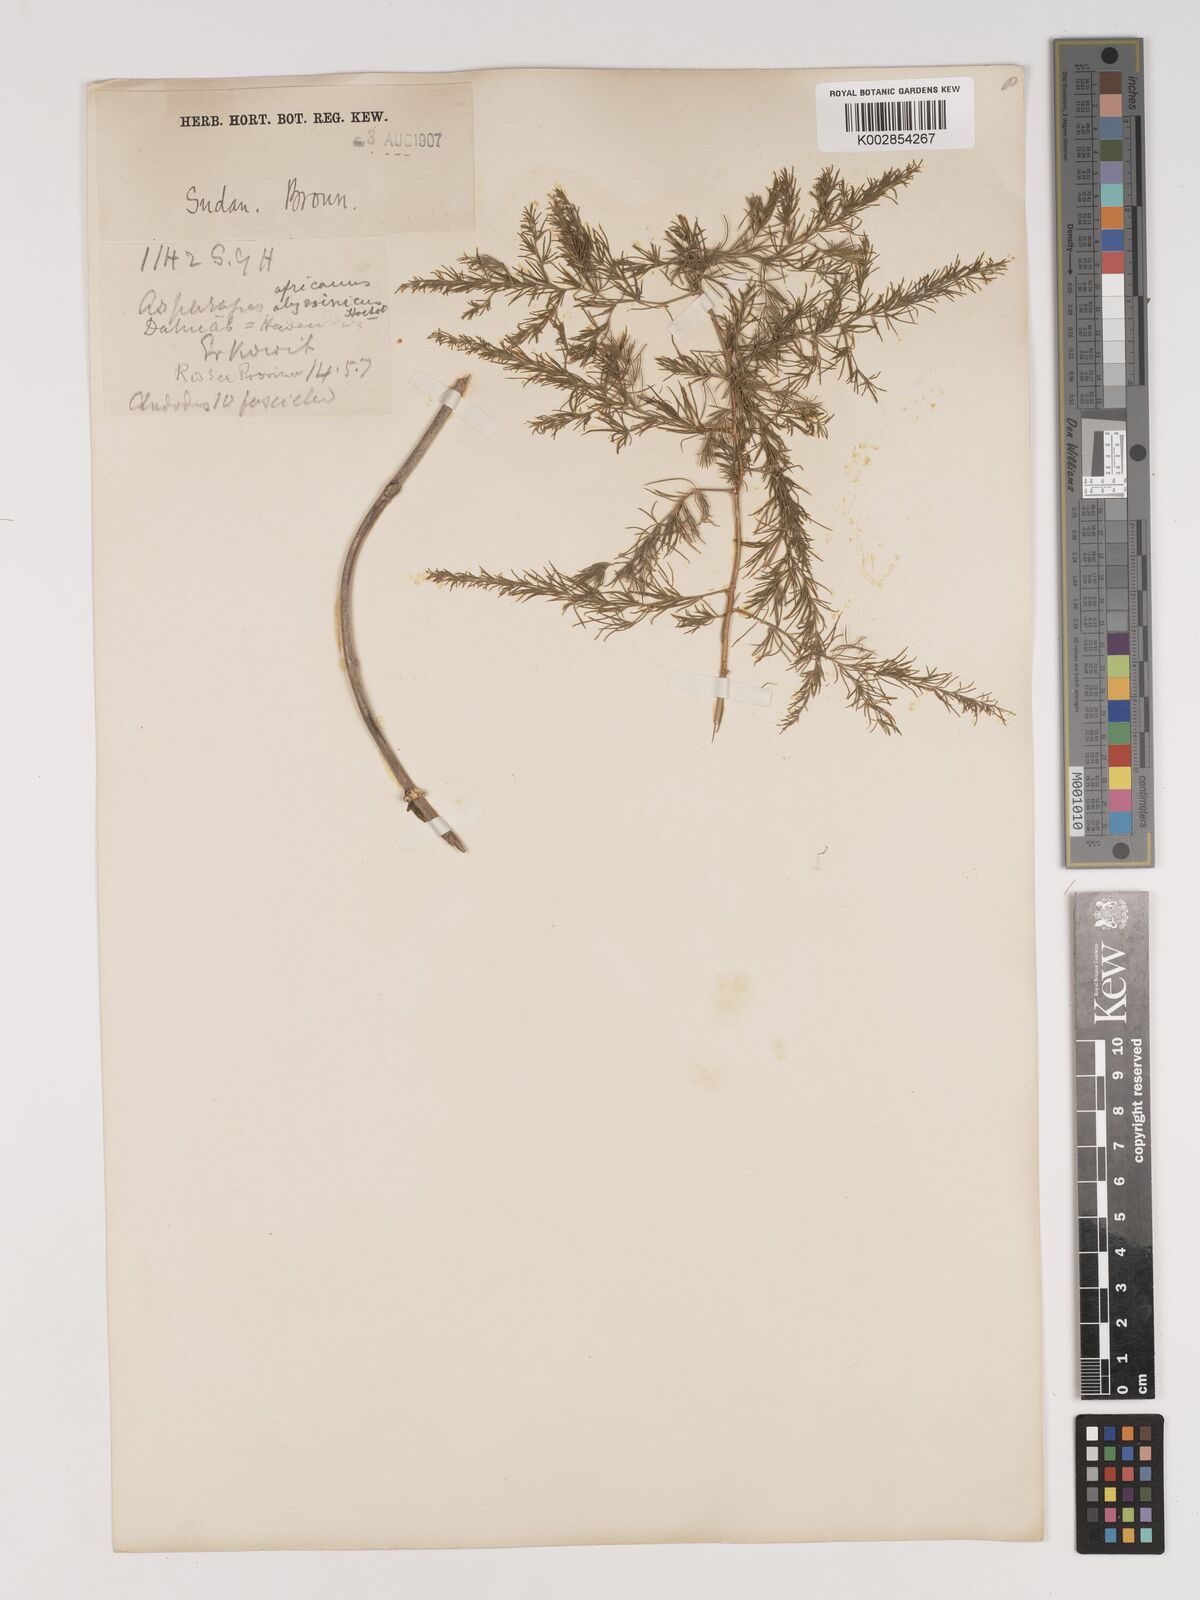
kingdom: Plantae
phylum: Tracheophyta
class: Liliopsida
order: Asparagales
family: Asparagaceae
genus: Asparagus
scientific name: Asparagus africanus
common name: Asparagus-fern
